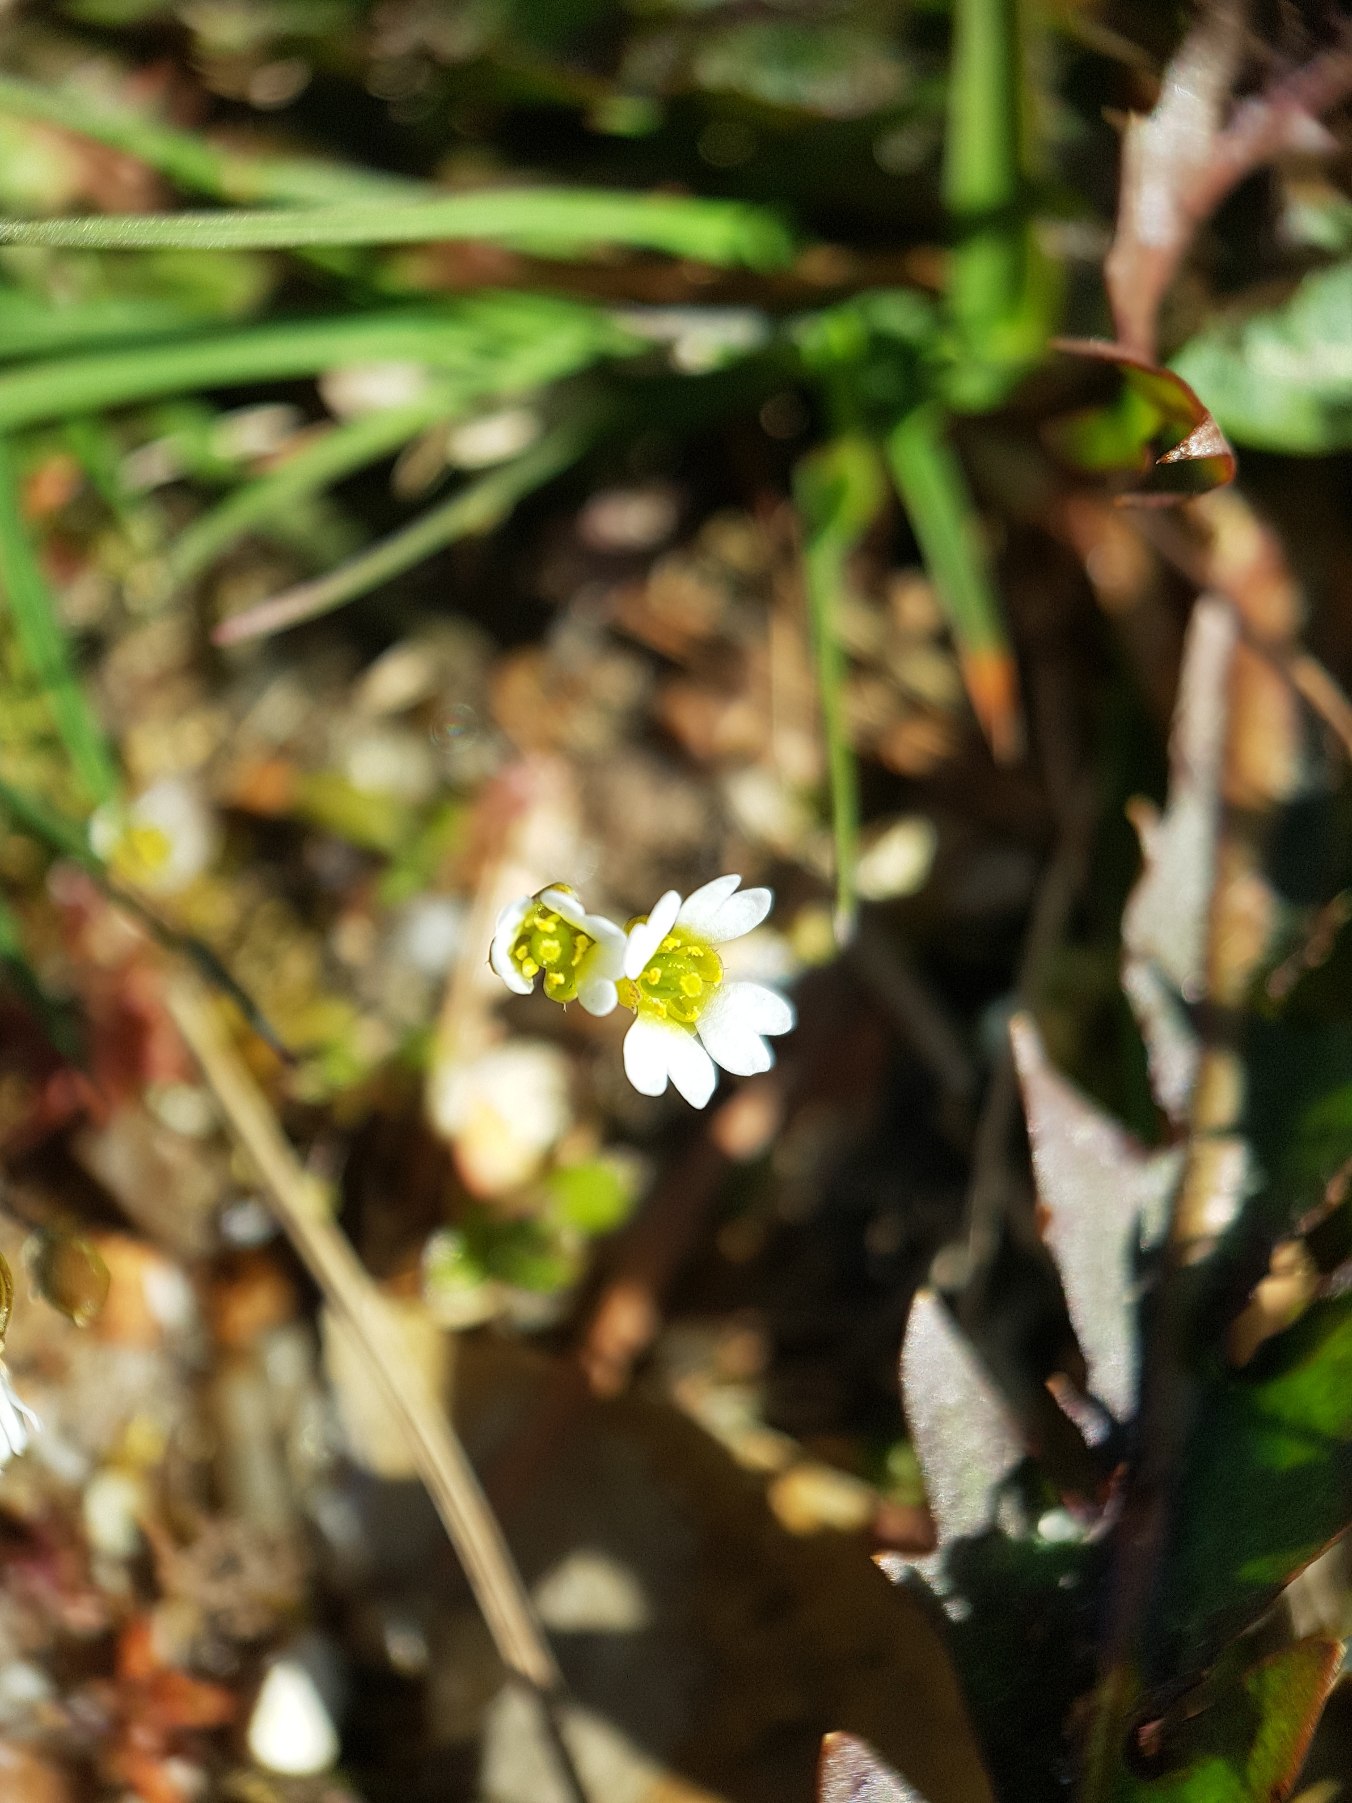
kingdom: Plantae
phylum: Tracheophyta
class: Magnoliopsida
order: Brassicales
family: Brassicaceae
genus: Draba
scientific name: Draba verna
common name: Vår-gæslingeblomst
